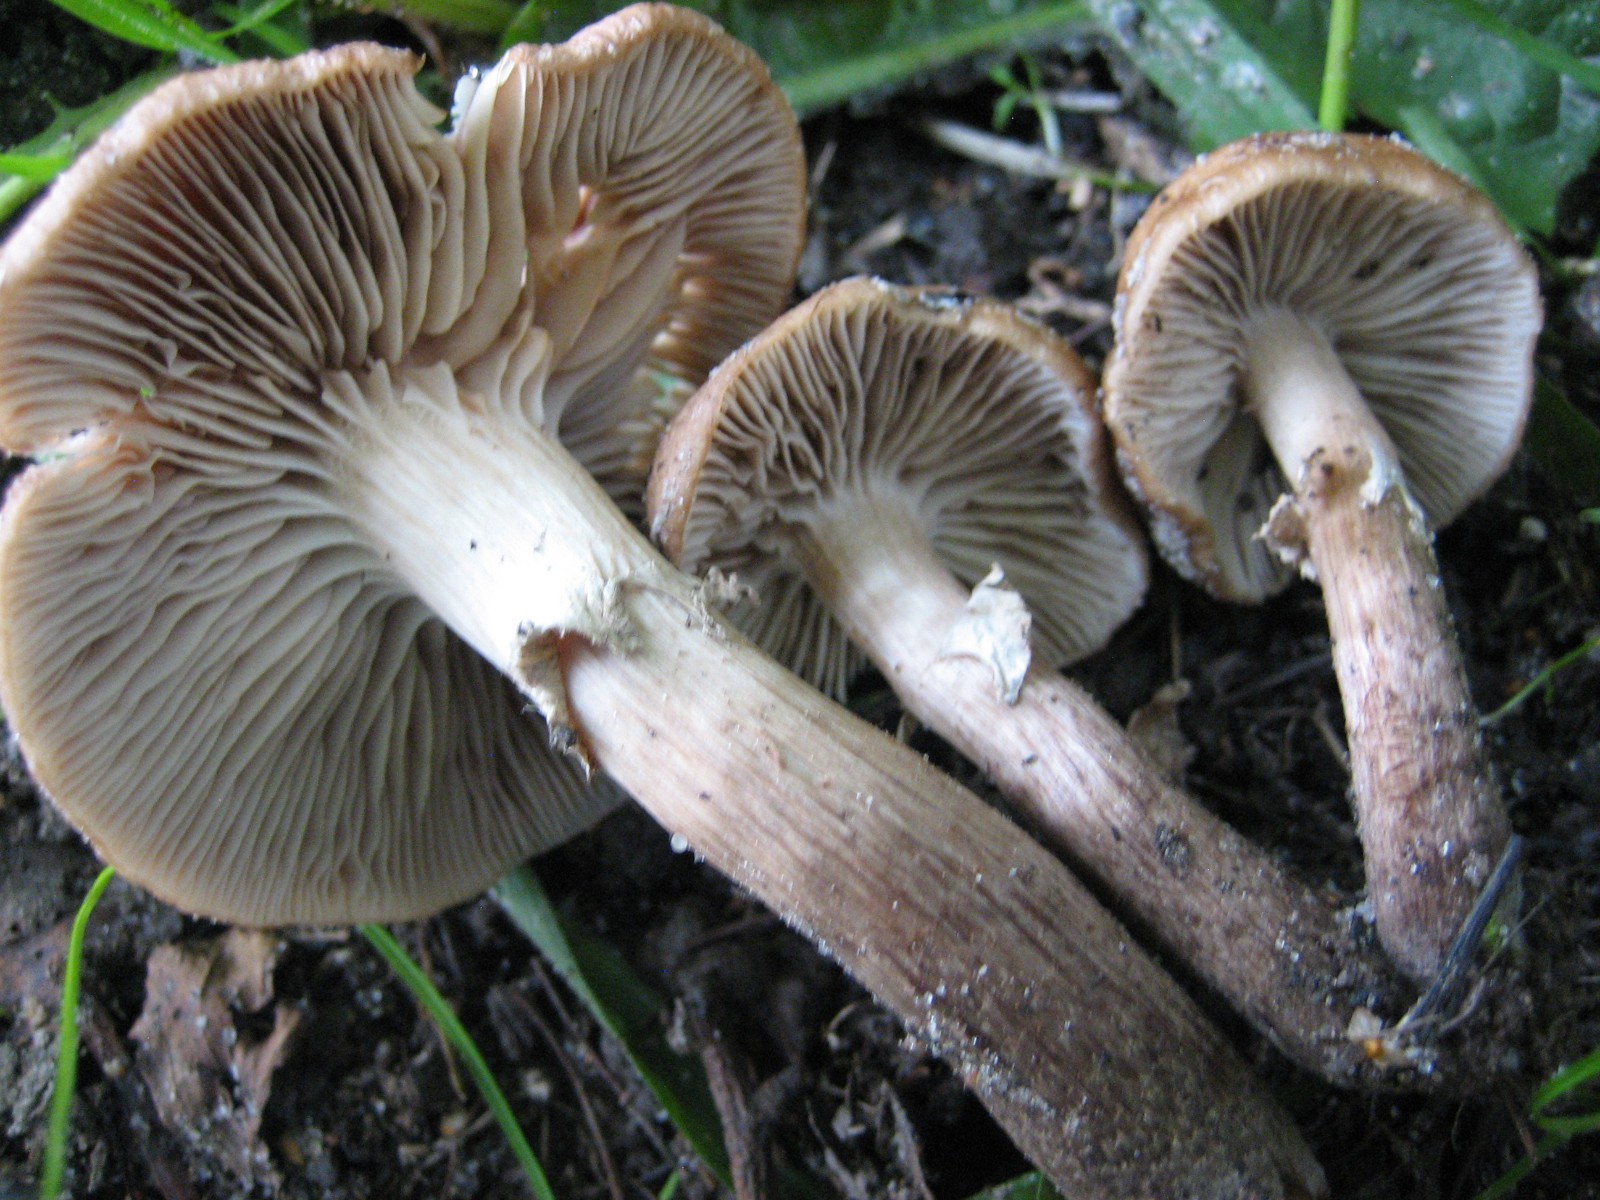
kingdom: Fungi
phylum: Basidiomycota
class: Agaricomycetes
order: Agaricales
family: Tubariaceae
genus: Cyclocybe
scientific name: Cyclocybe erebia
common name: mørk agerhat
